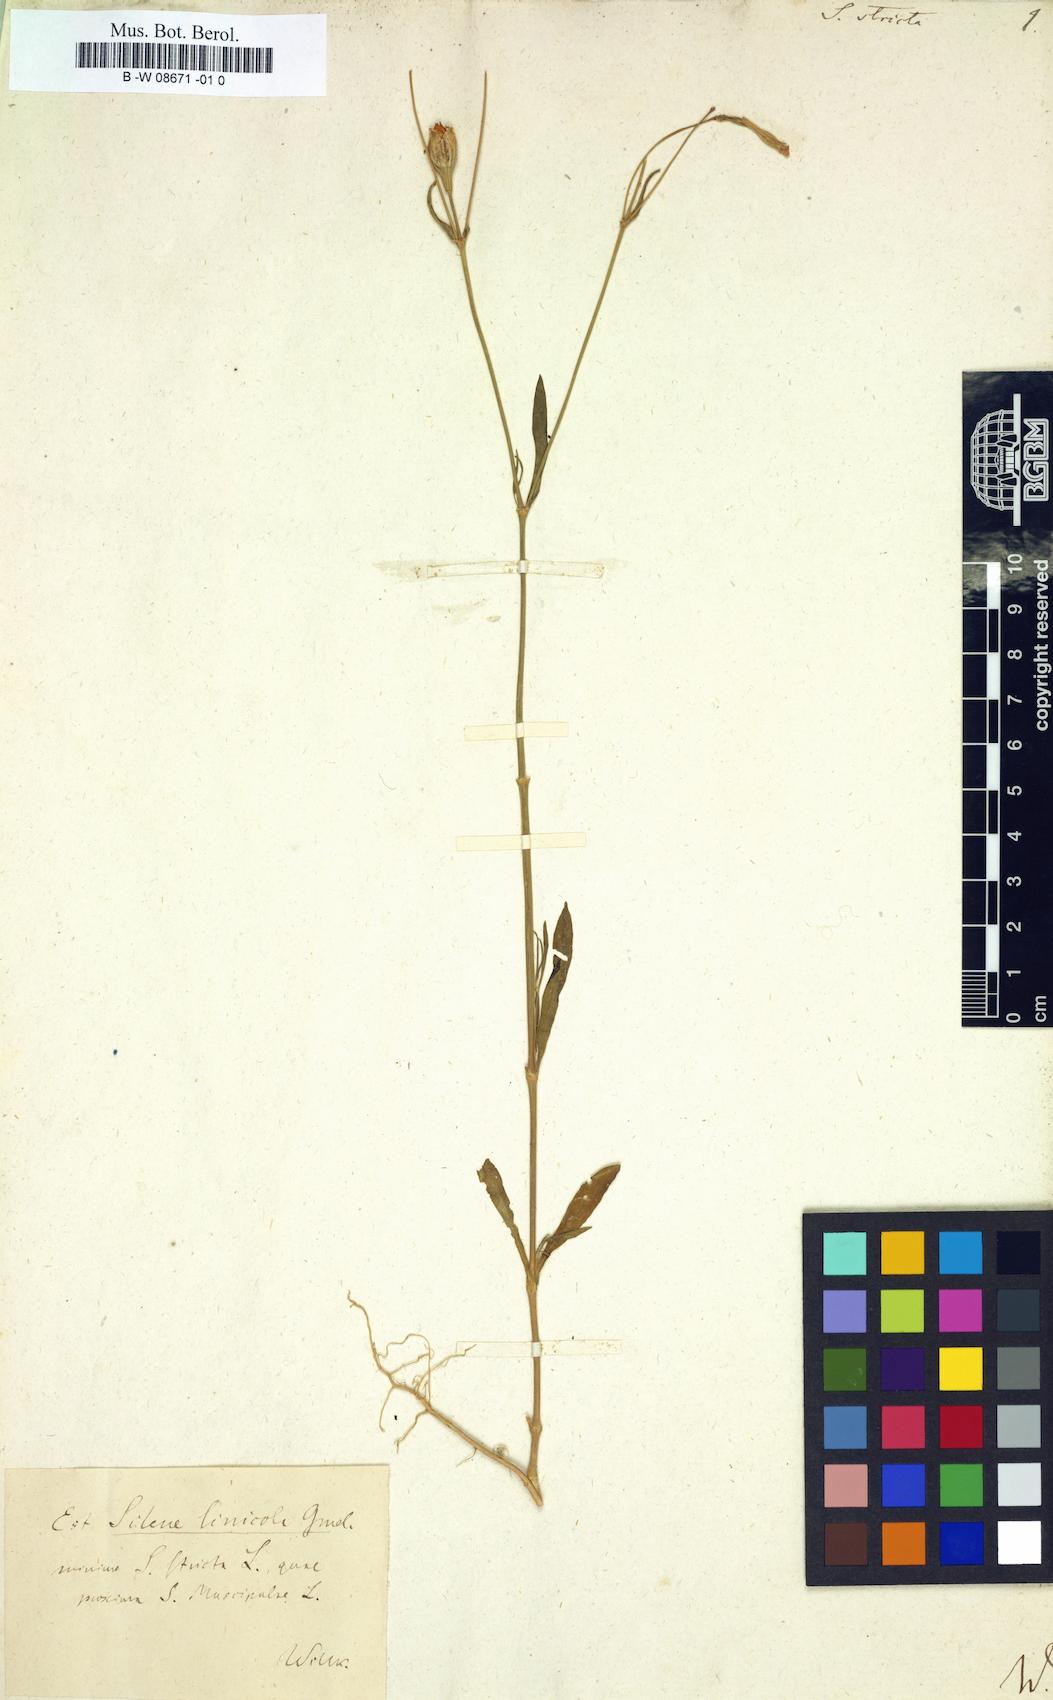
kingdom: Plantae
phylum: Tracheophyta
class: Magnoliopsida
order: Caryophyllales
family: Caryophyllaceae
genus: Silene
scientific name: Silene stricta
